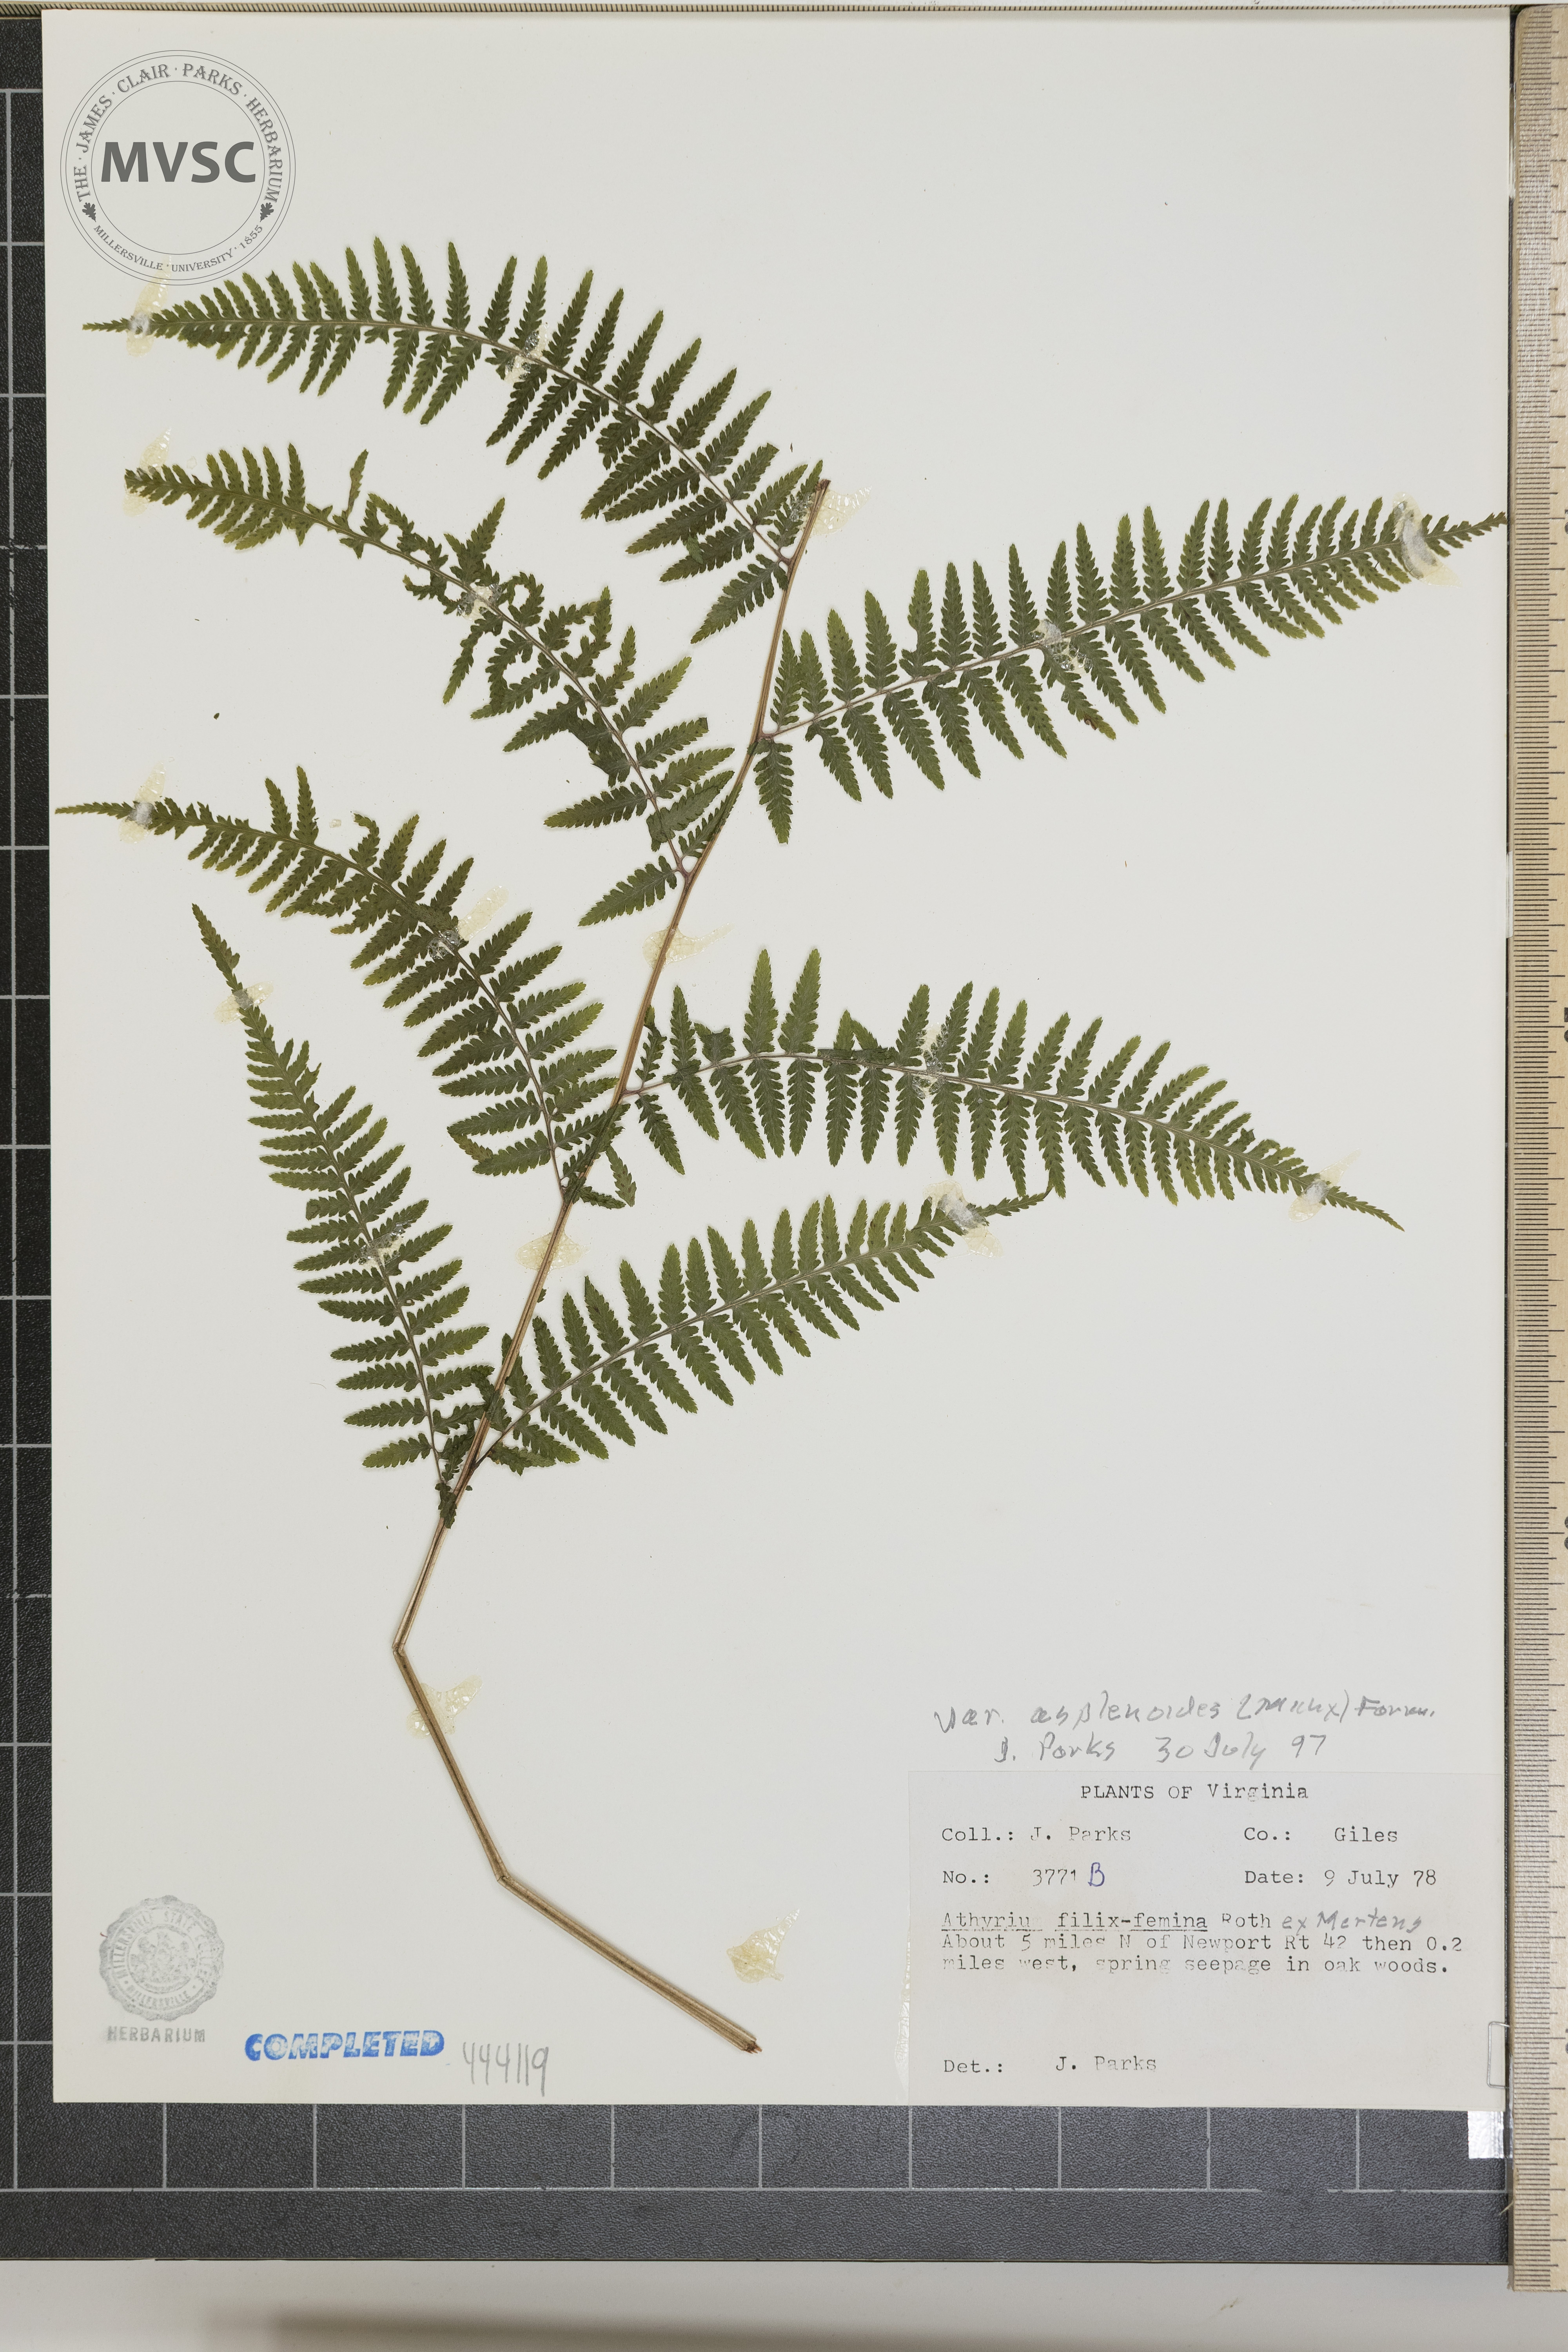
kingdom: Plantae
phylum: Tracheophyta
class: Polypodiopsida
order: Polypodiales
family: Athyriaceae
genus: Athyrium
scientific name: Athyrium filix-femina
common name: Lady fern
